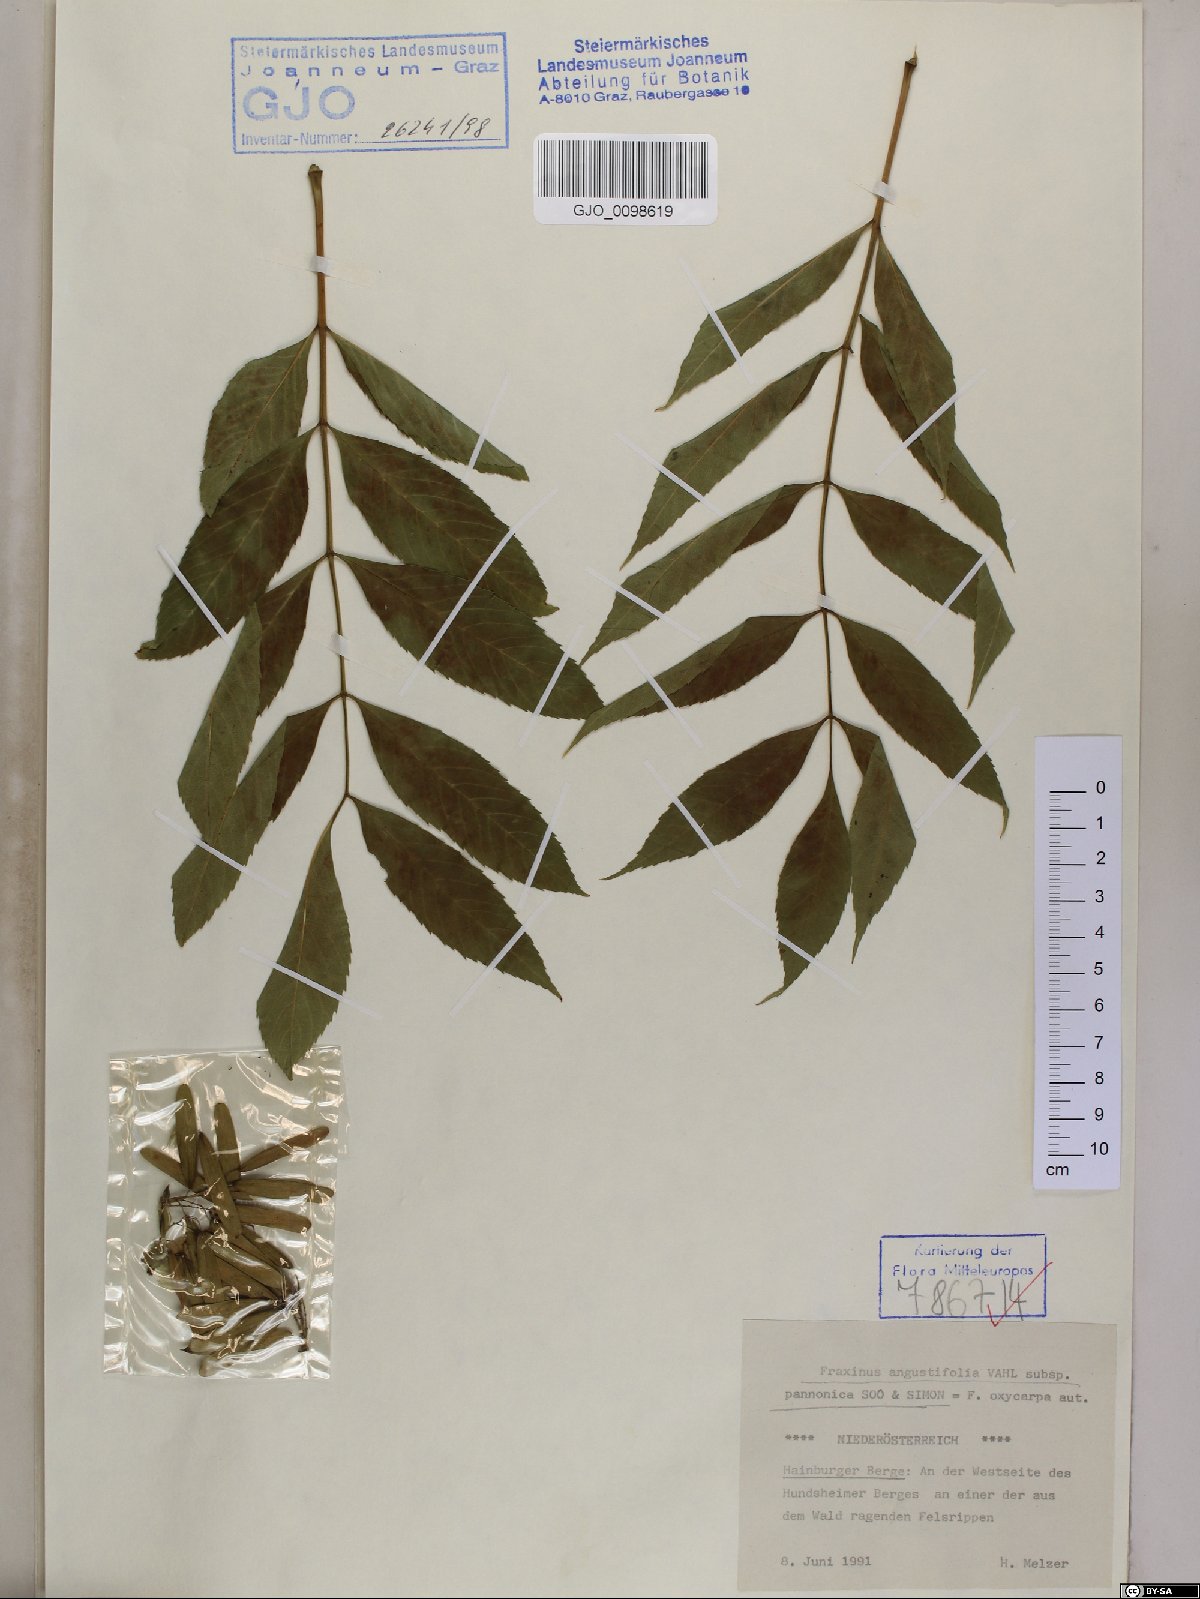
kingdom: Plantae
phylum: Tracheophyta
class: Magnoliopsida
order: Lamiales
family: Oleaceae
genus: Fraxinus
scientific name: Fraxinus angustifolia
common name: Narrow-leafed ash
